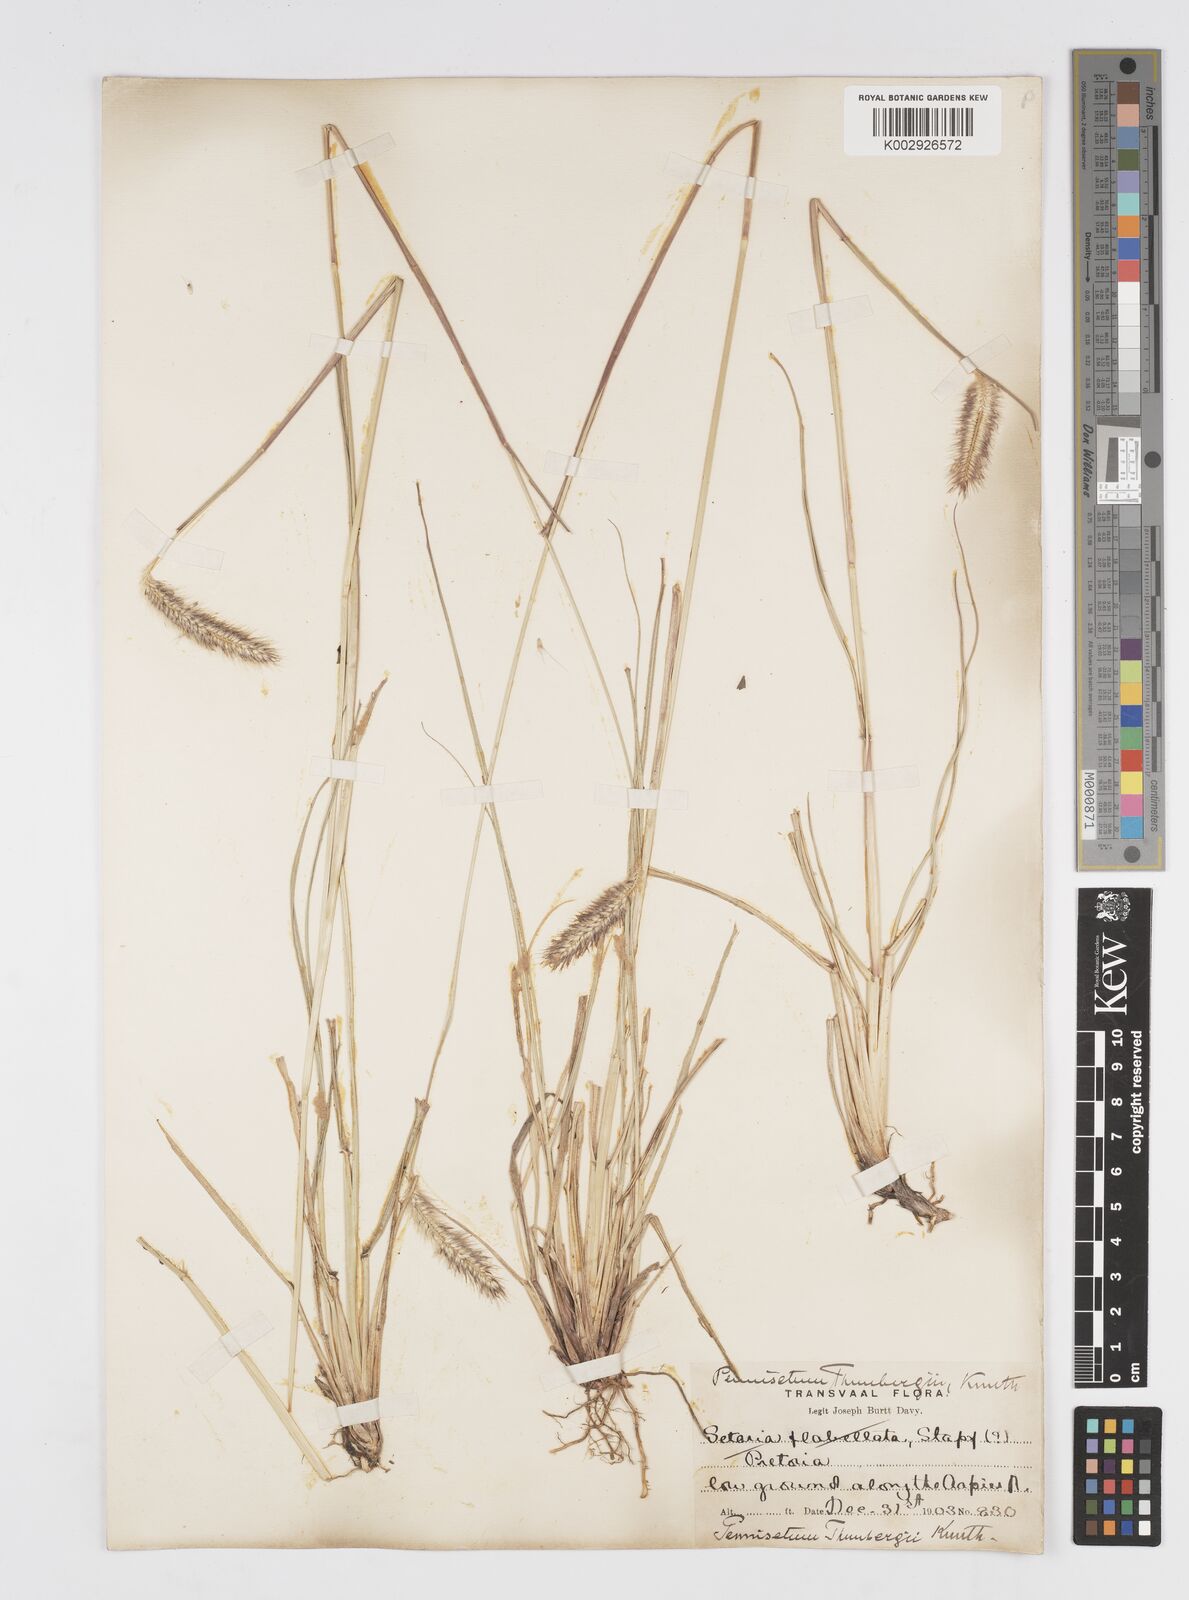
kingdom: Plantae
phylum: Tracheophyta
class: Liliopsida
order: Poales
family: Poaceae
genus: Cenchrus
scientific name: Cenchrus geniculatus
